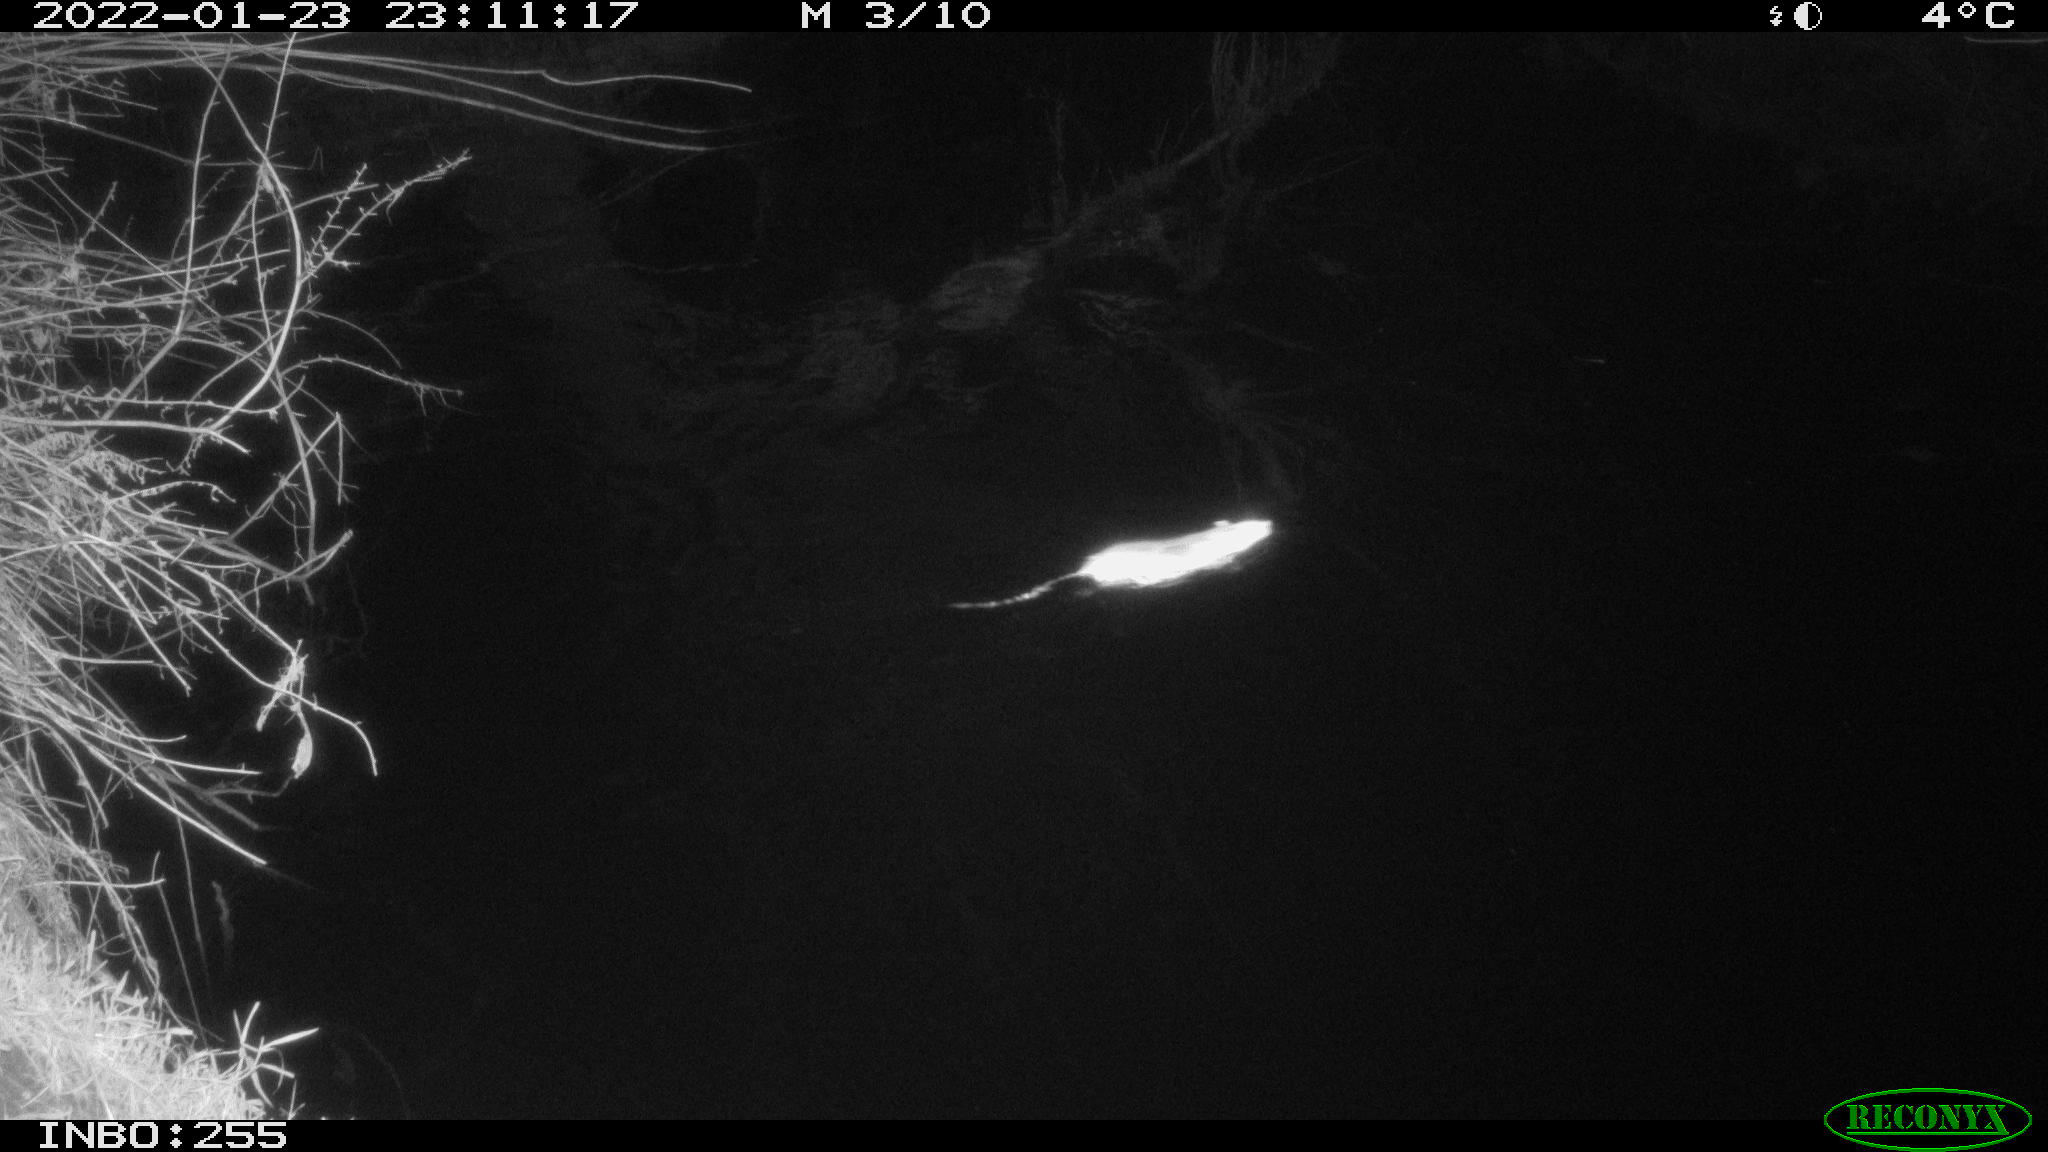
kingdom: Animalia
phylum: Chordata
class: Mammalia
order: Rodentia
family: Muridae
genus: Rattus
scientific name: Rattus norvegicus
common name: Brown rat
